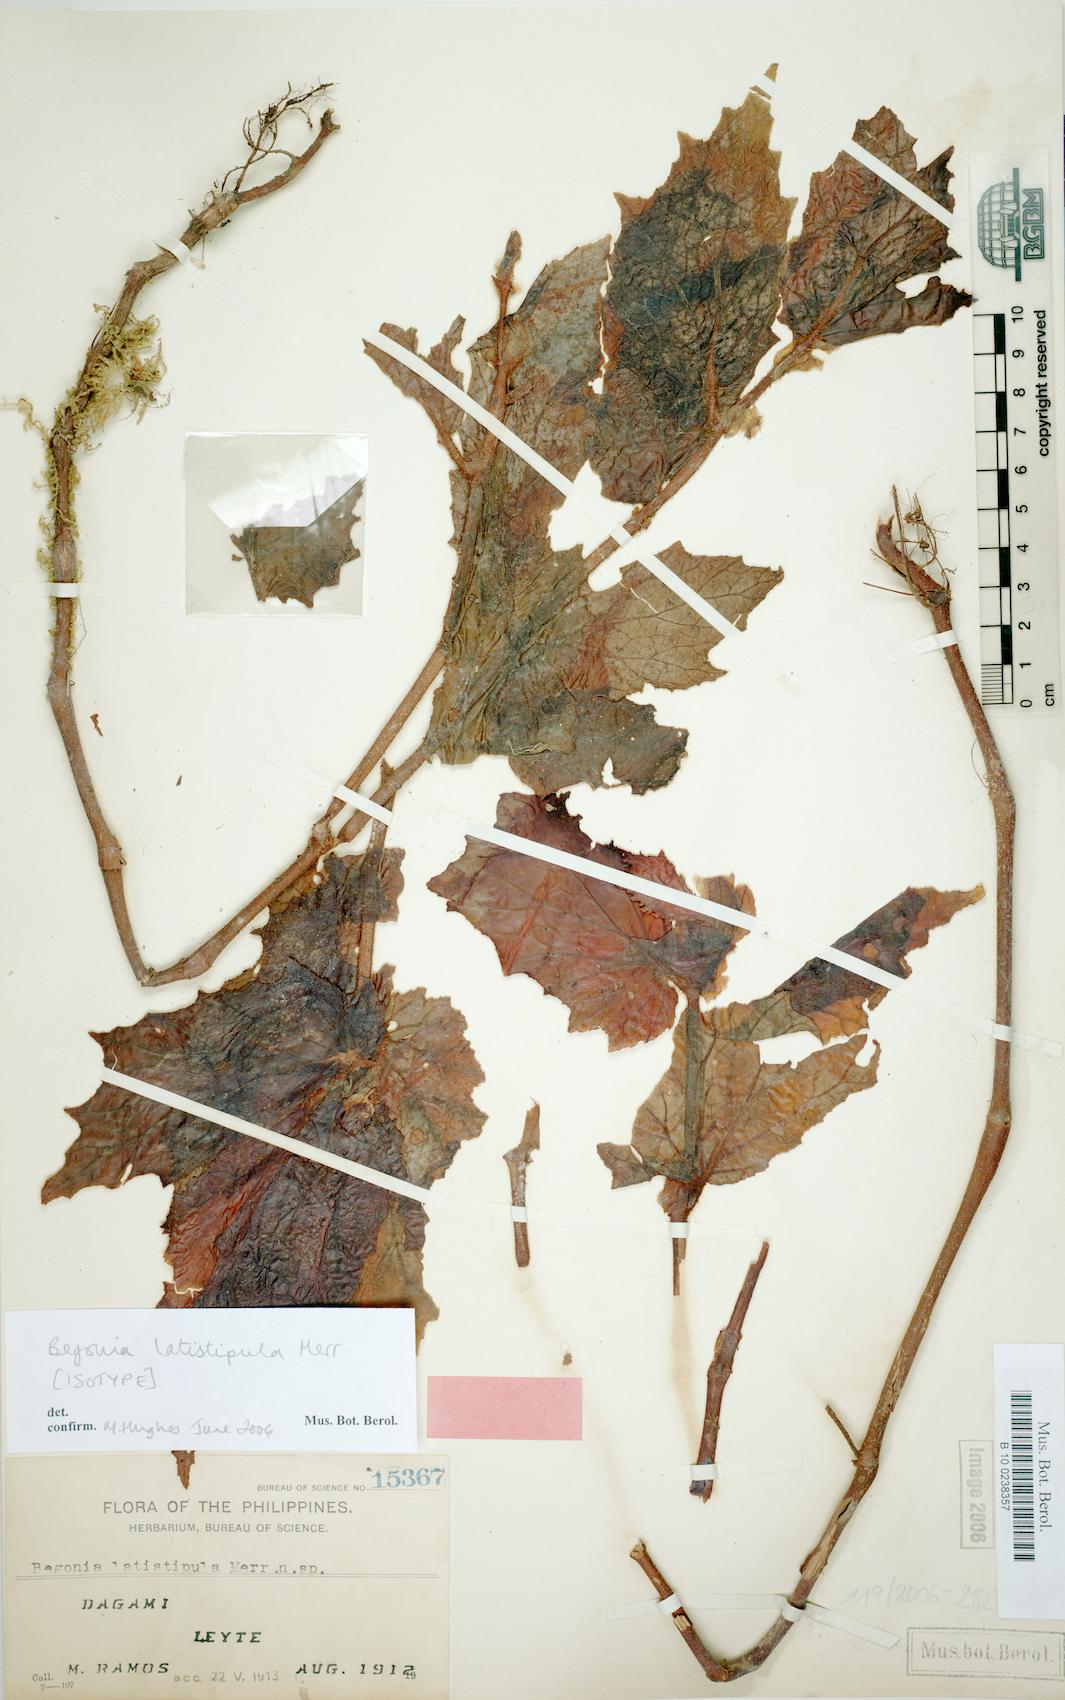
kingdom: Plantae
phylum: Tracheophyta
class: Magnoliopsida
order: Cucurbitales
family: Begoniaceae
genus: Begonia
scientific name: Begonia latistipula
